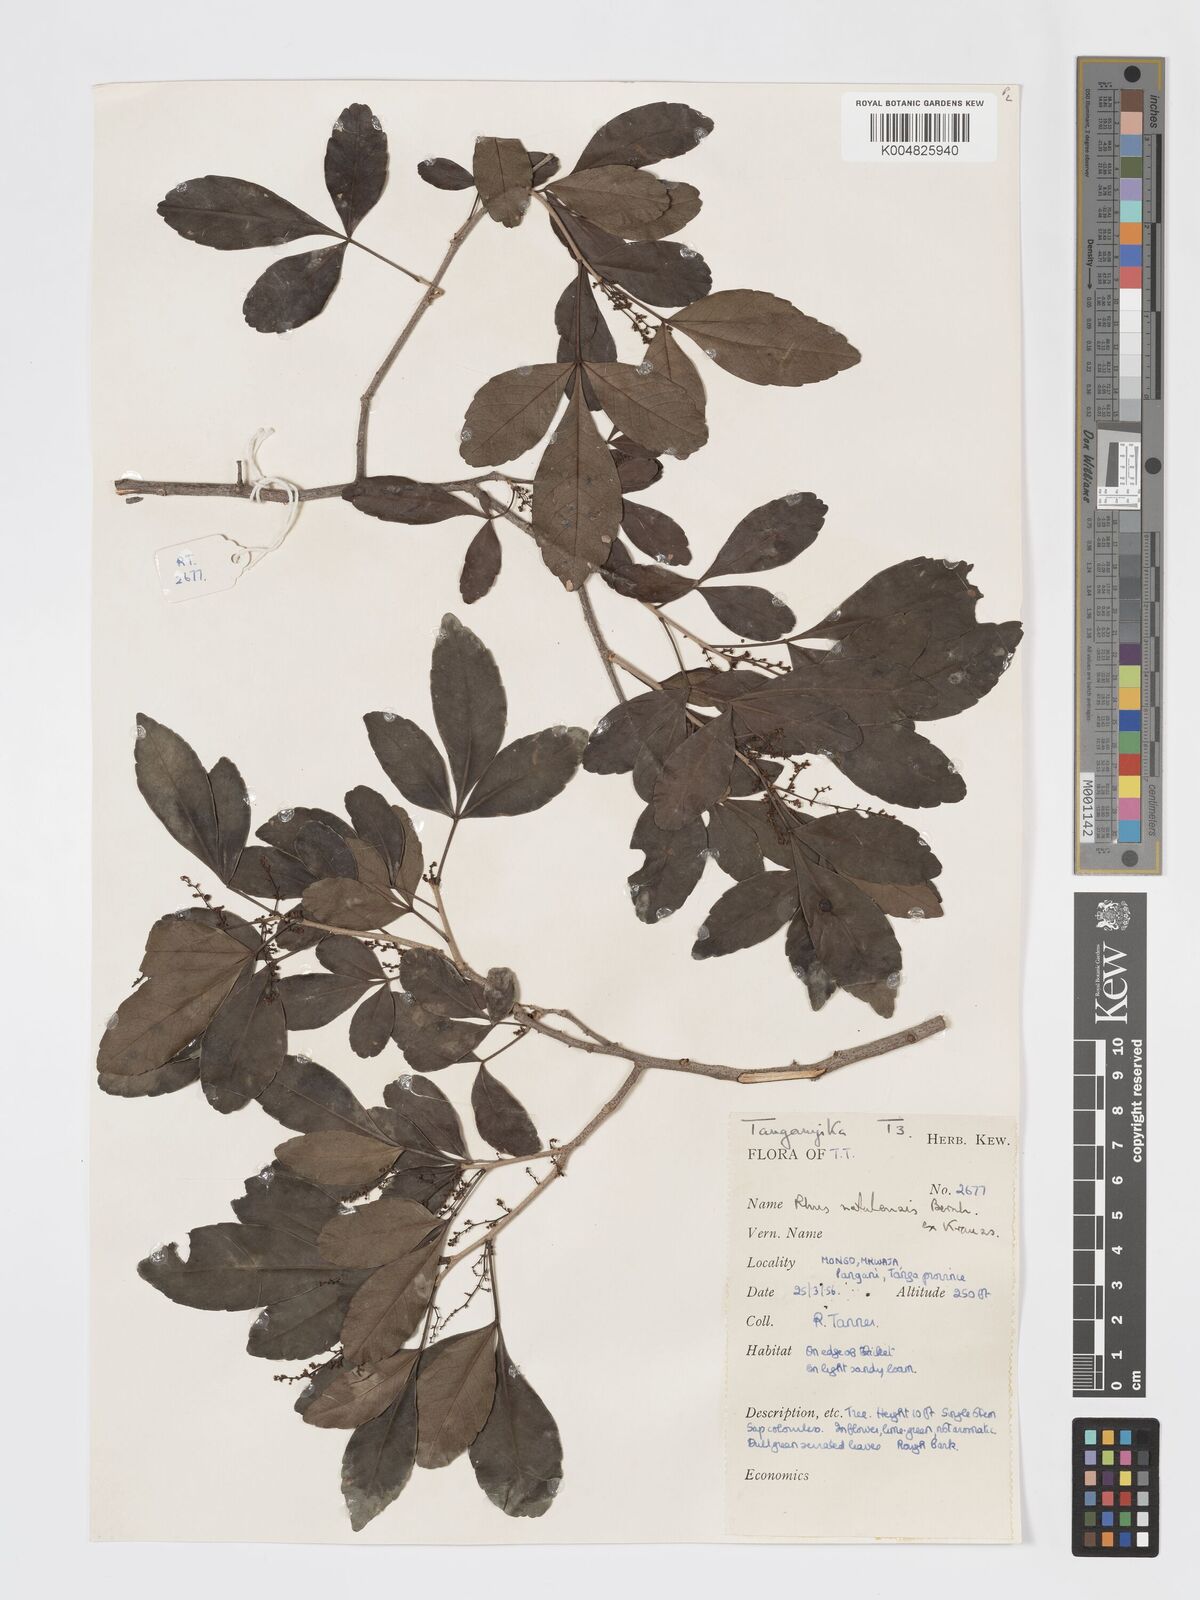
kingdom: Plantae
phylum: Tracheophyta
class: Magnoliopsida
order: Sapindales
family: Anacardiaceae
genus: Searsia
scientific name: Searsia natalensis
